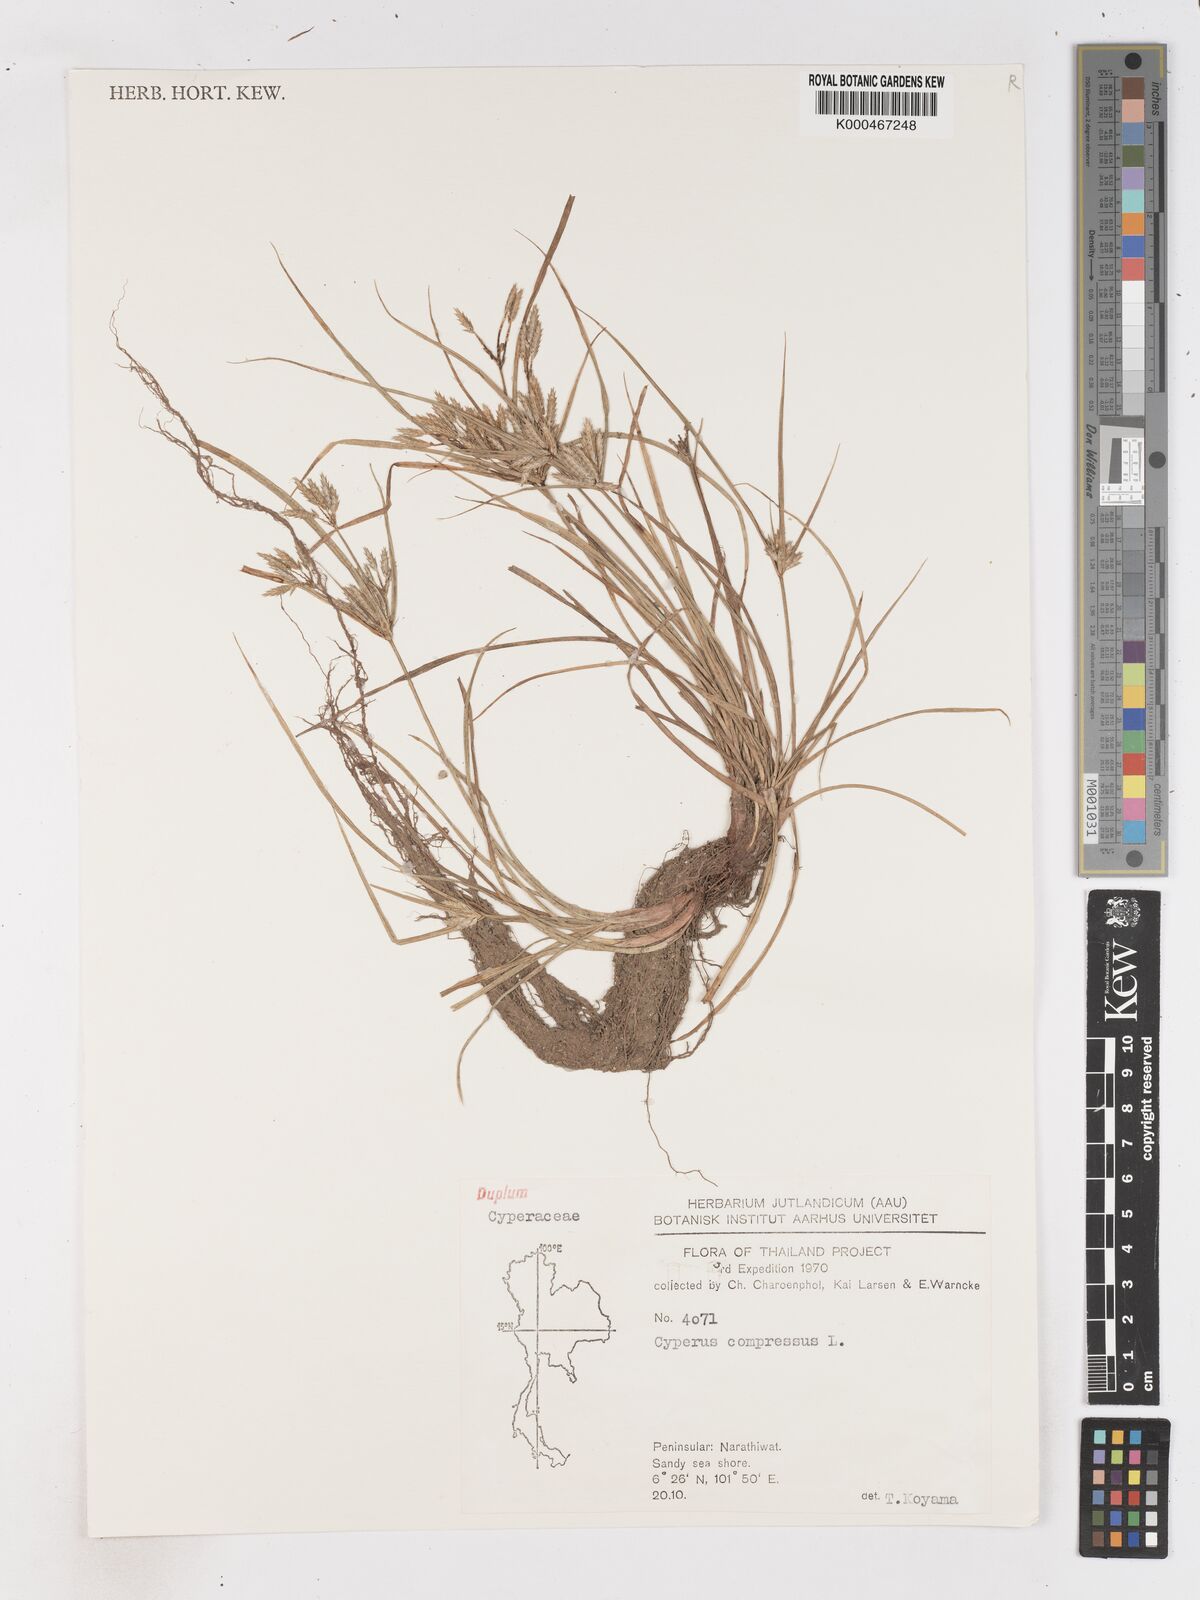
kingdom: Plantae
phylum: Tracheophyta
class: Liliopsida
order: Poales
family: Cyperaceae
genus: Cyperus
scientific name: Cyperus compressus
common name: Poorland flatsedge
